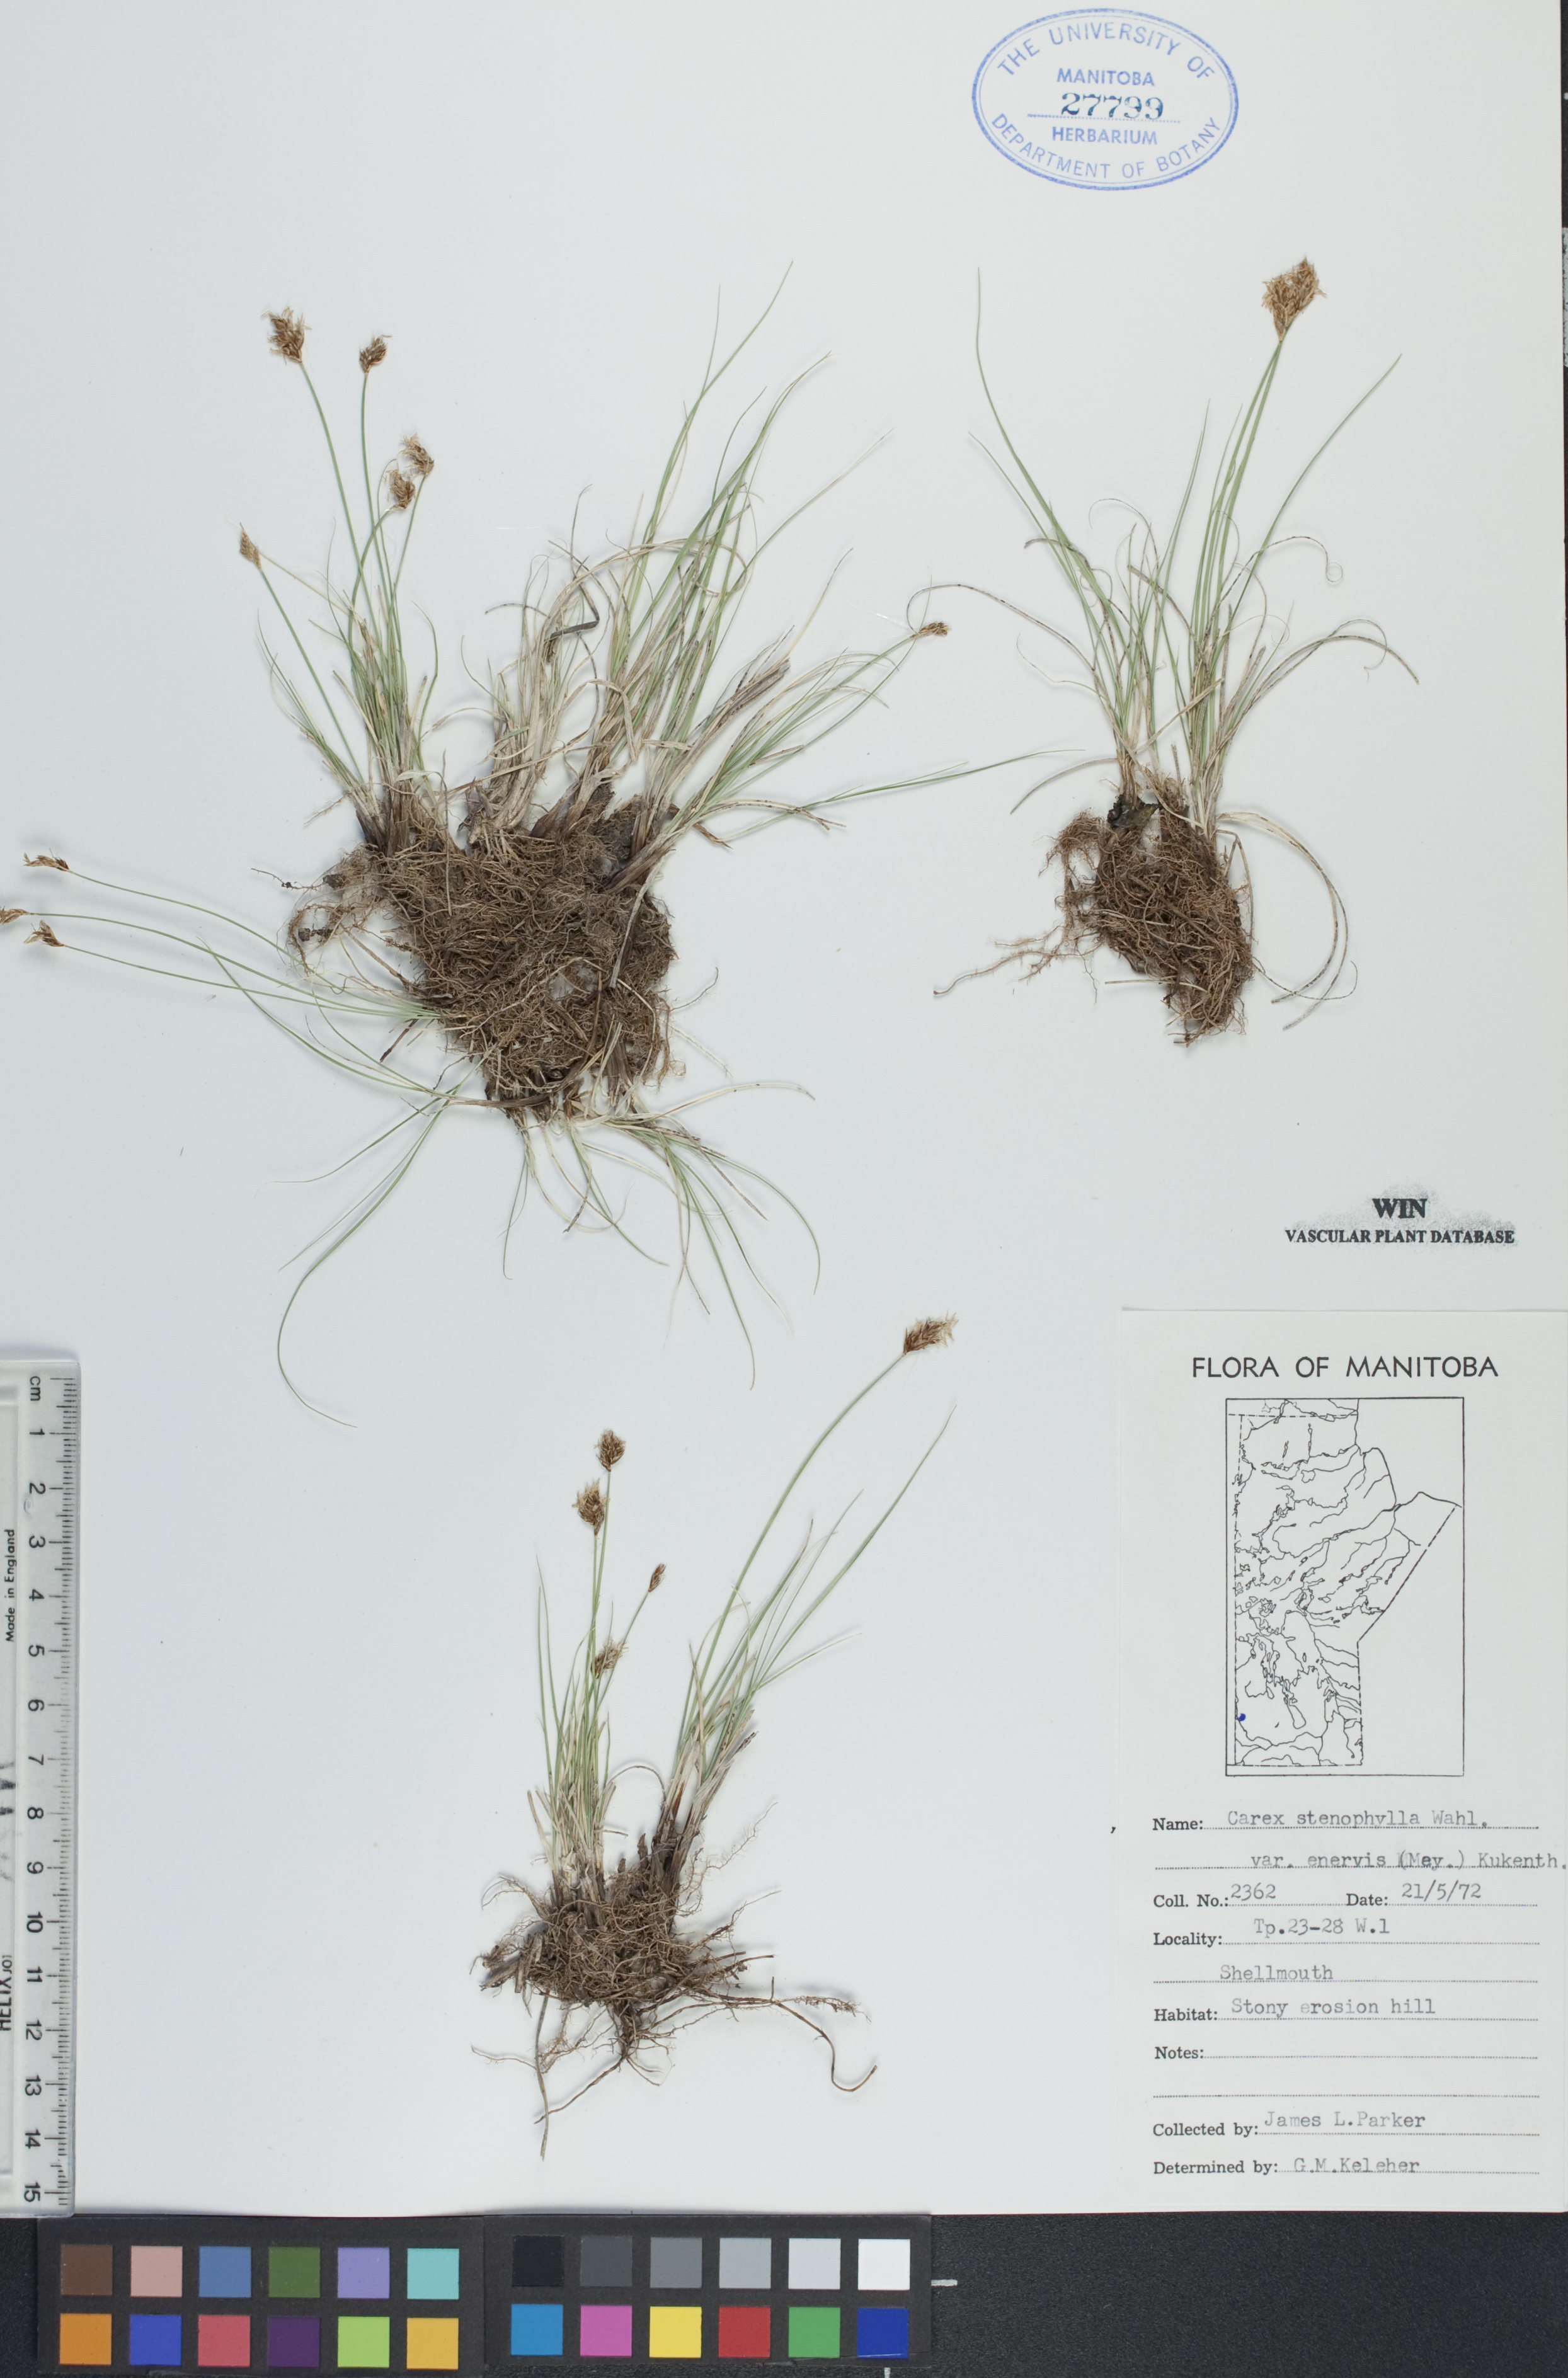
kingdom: Plantae
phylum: Tracheophyta
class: Liliopsida
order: Poales
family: Cyperaceae
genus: Carex
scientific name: Carex enervis
